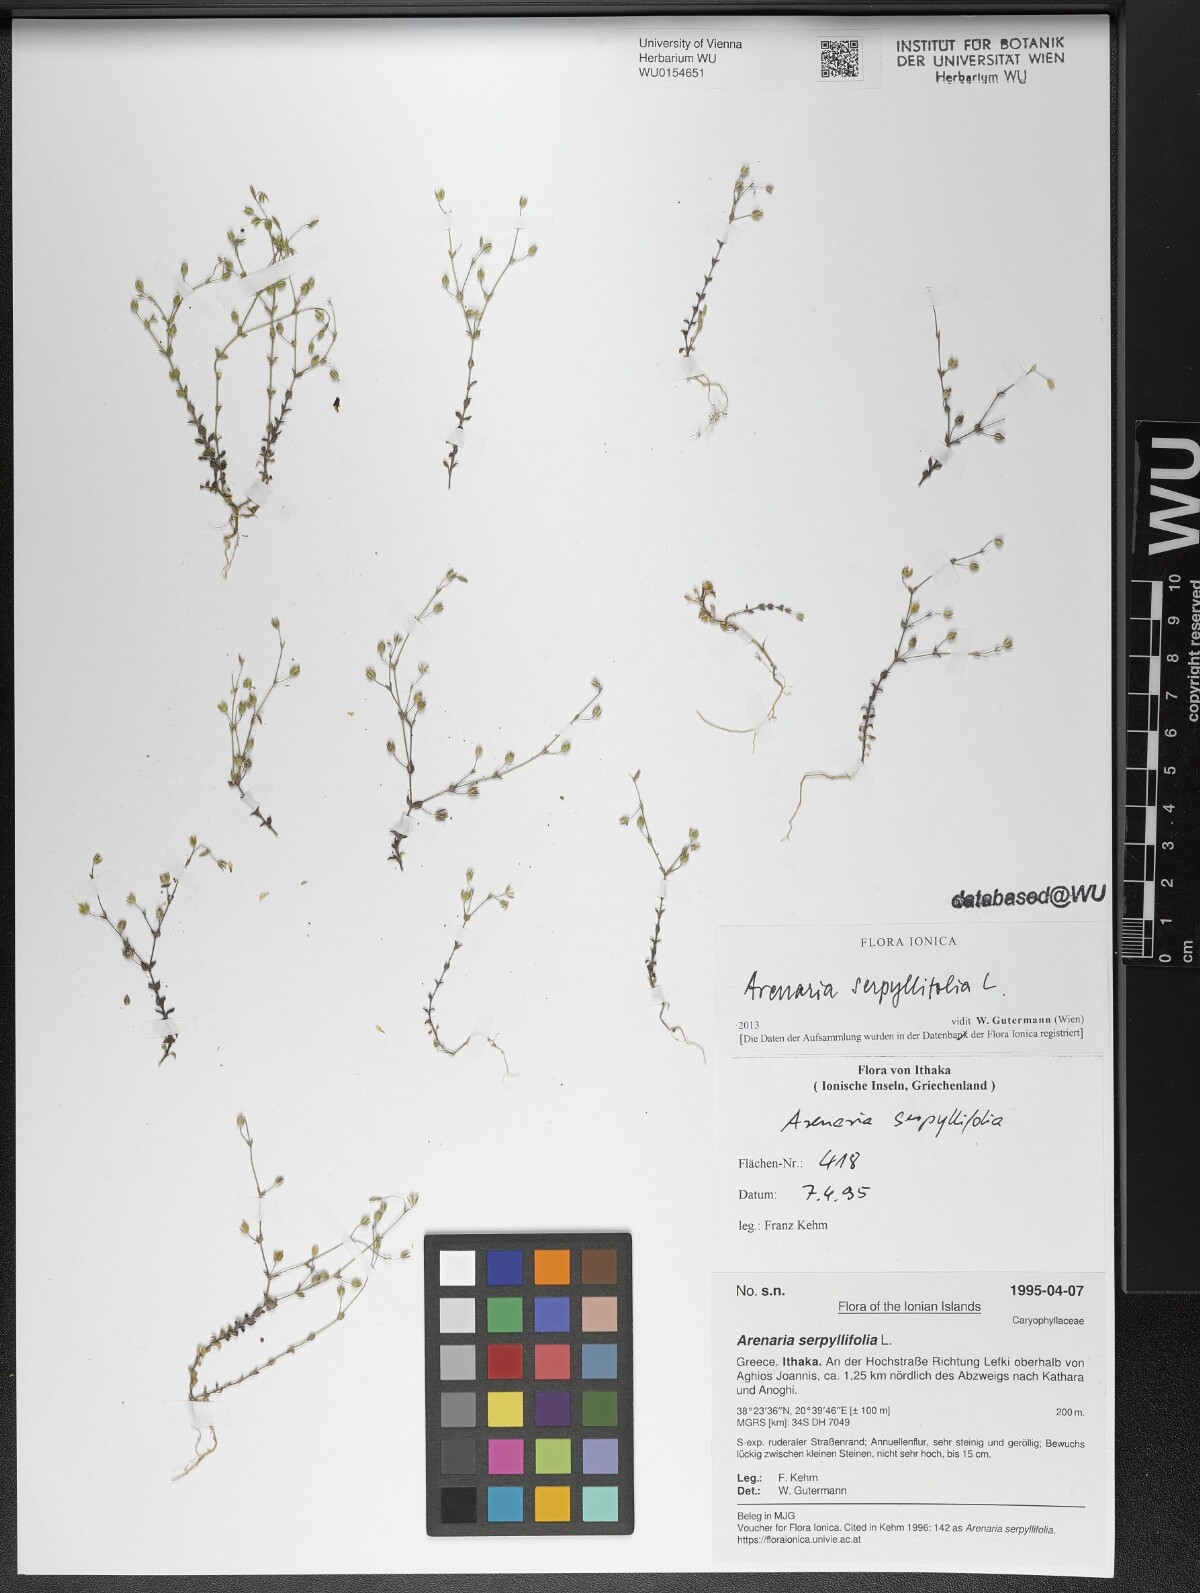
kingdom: Plantae
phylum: Tracheophyta
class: Magnoliopsida
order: Caryophyllales
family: Caryophyllaceae
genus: Arenaria
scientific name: Arenaria serpyllifolia
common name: Thyme-leaved sandwort
